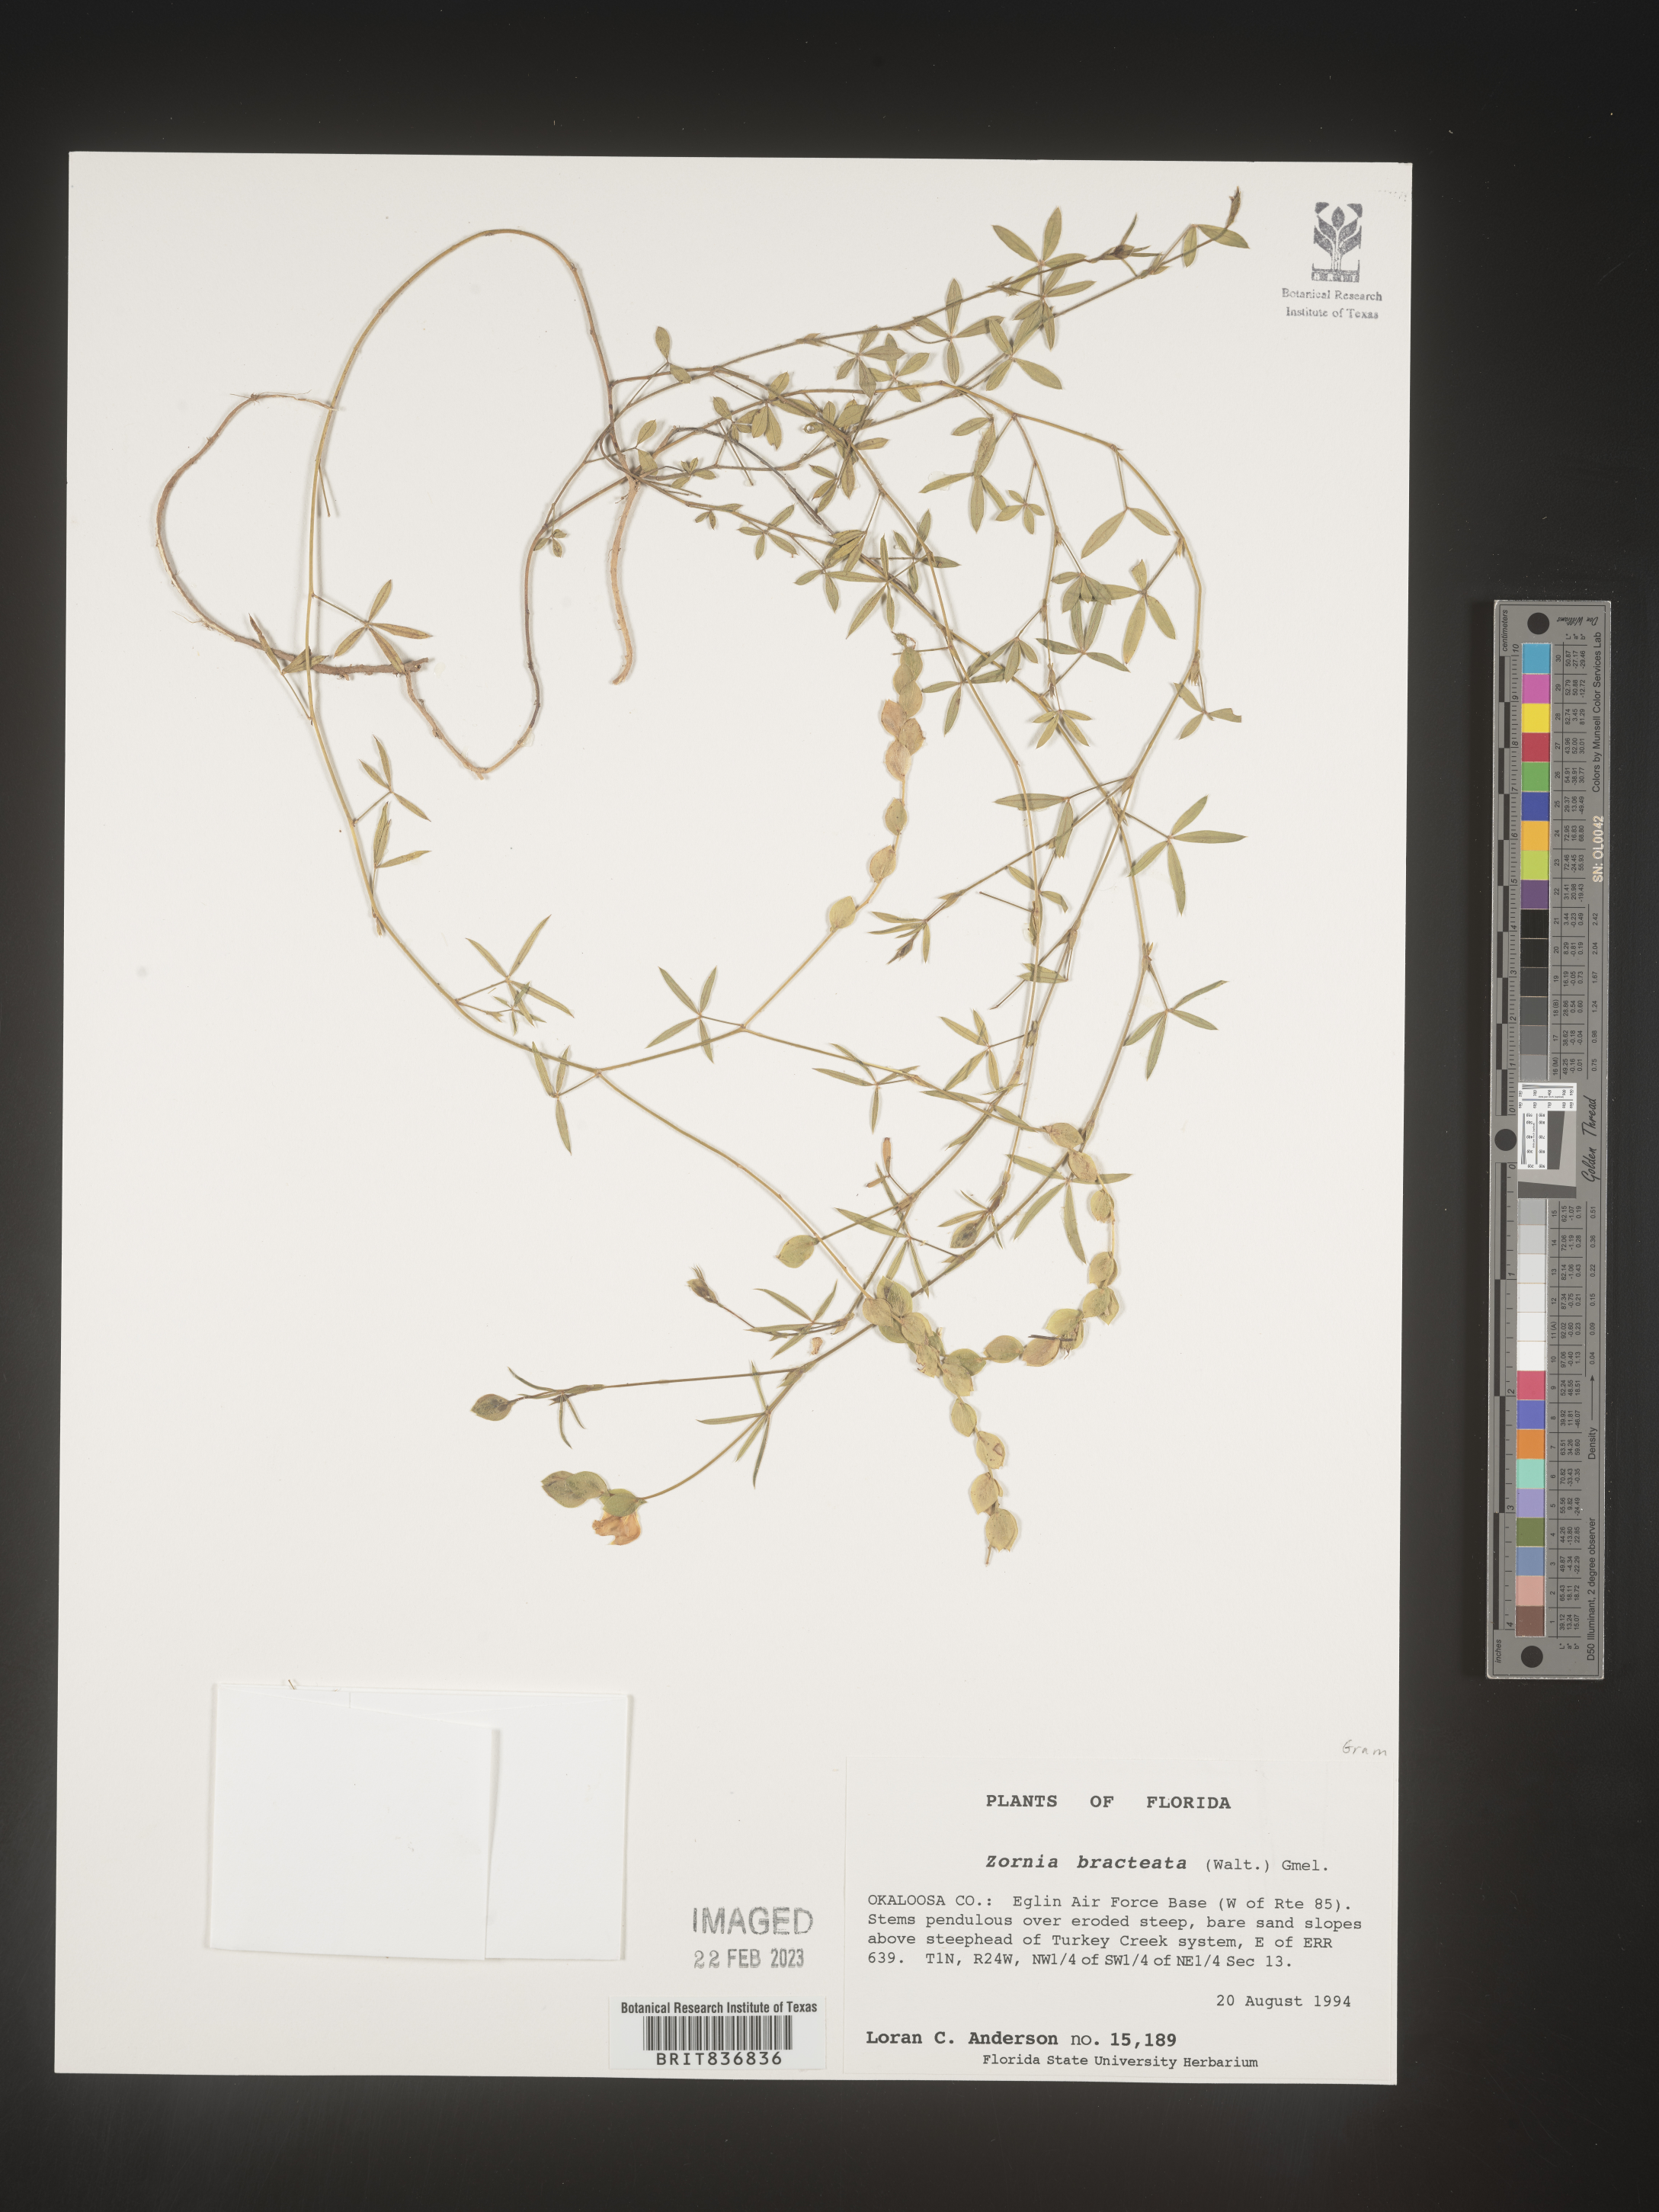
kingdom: Plantae
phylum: Tracheophyta
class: Magnoliopsida
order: Fabales
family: Fabaceae
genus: Zornia
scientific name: Zornia
